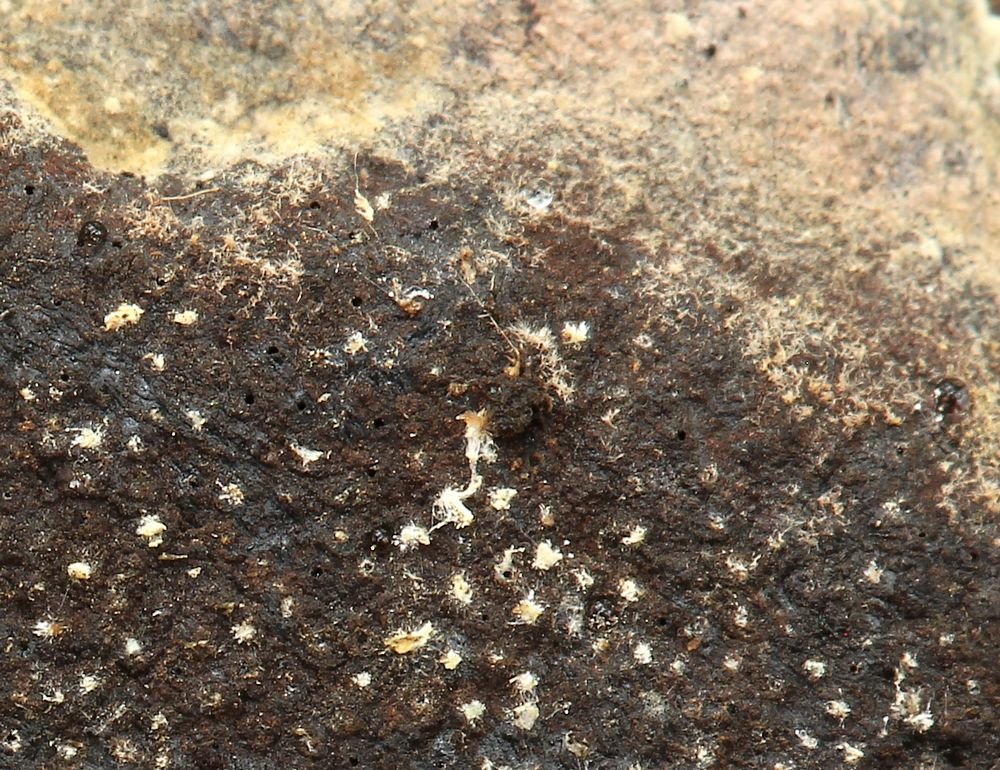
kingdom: Fungi
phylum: Ascomycota
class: Sordariomycetes
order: Xylariales
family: Hypoxylaceae
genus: Hypoxylon
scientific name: Hypoxylon
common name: kulbær
